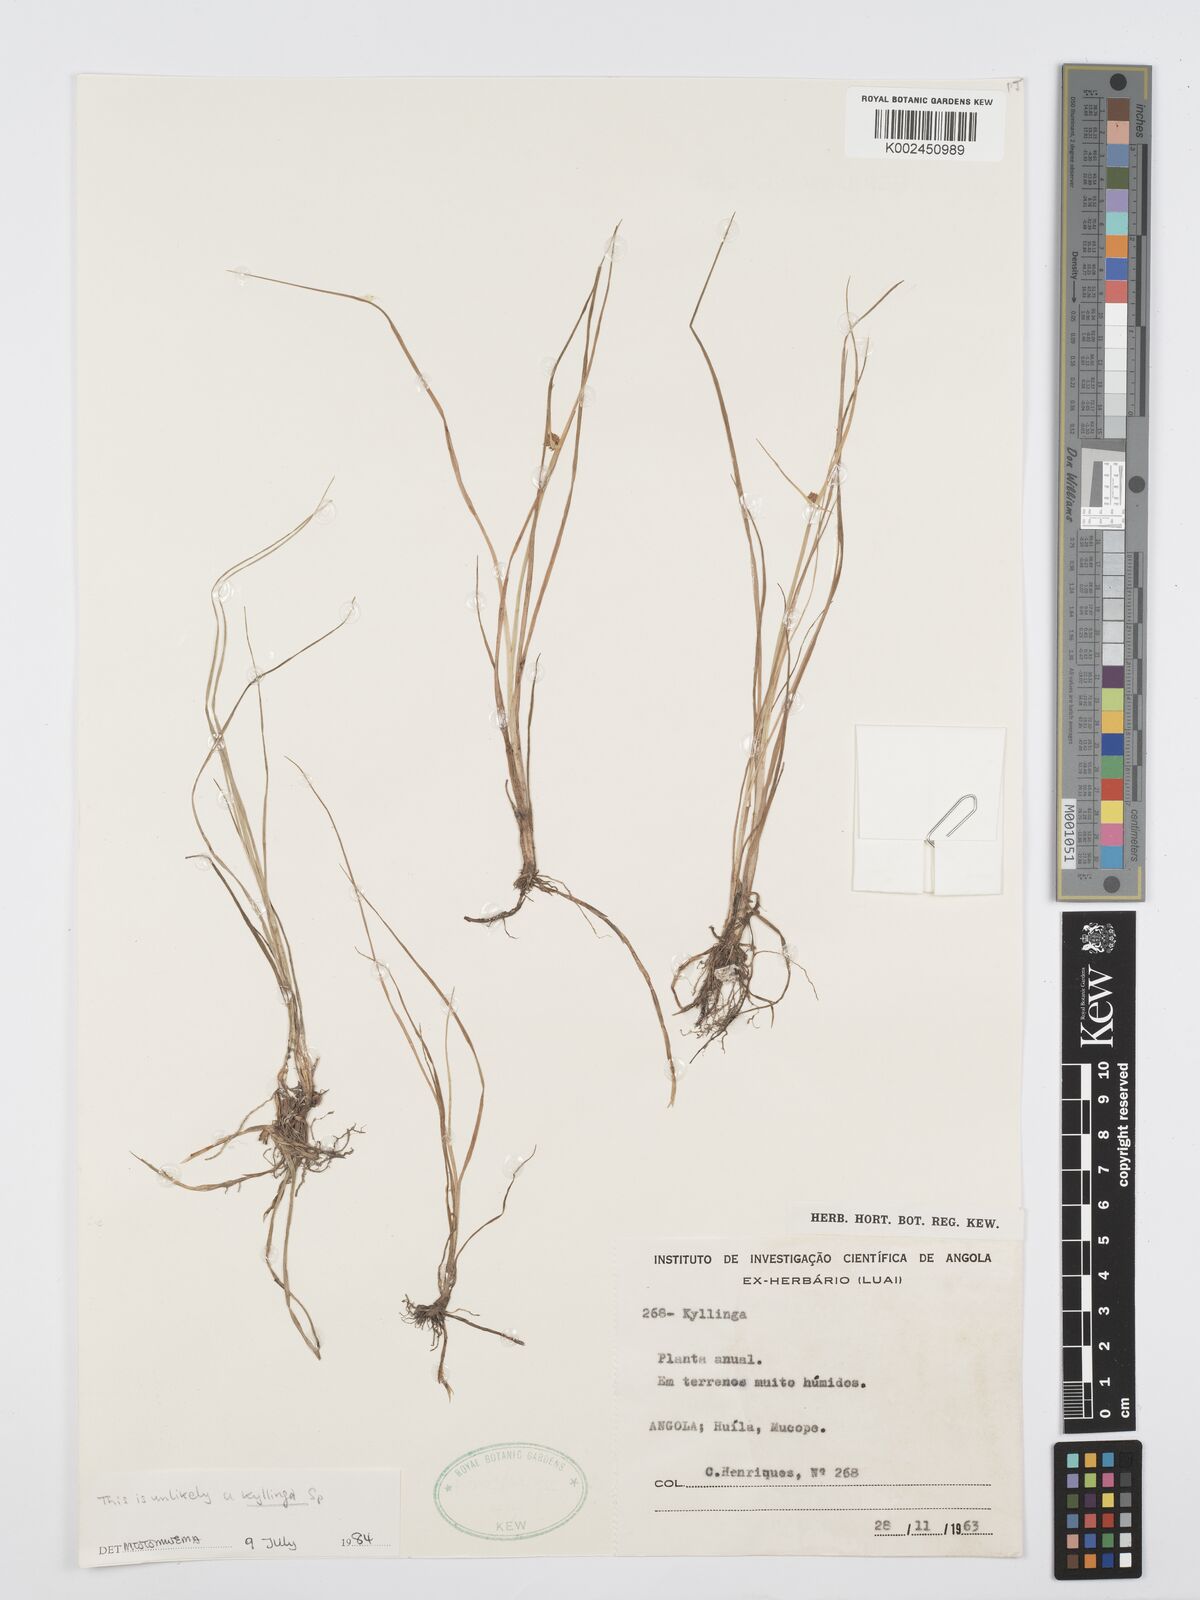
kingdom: Plantae
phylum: Tracheophyta
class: Liliopsida
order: Poales
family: Cyperaceae
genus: Cyperus
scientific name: Cyperus
